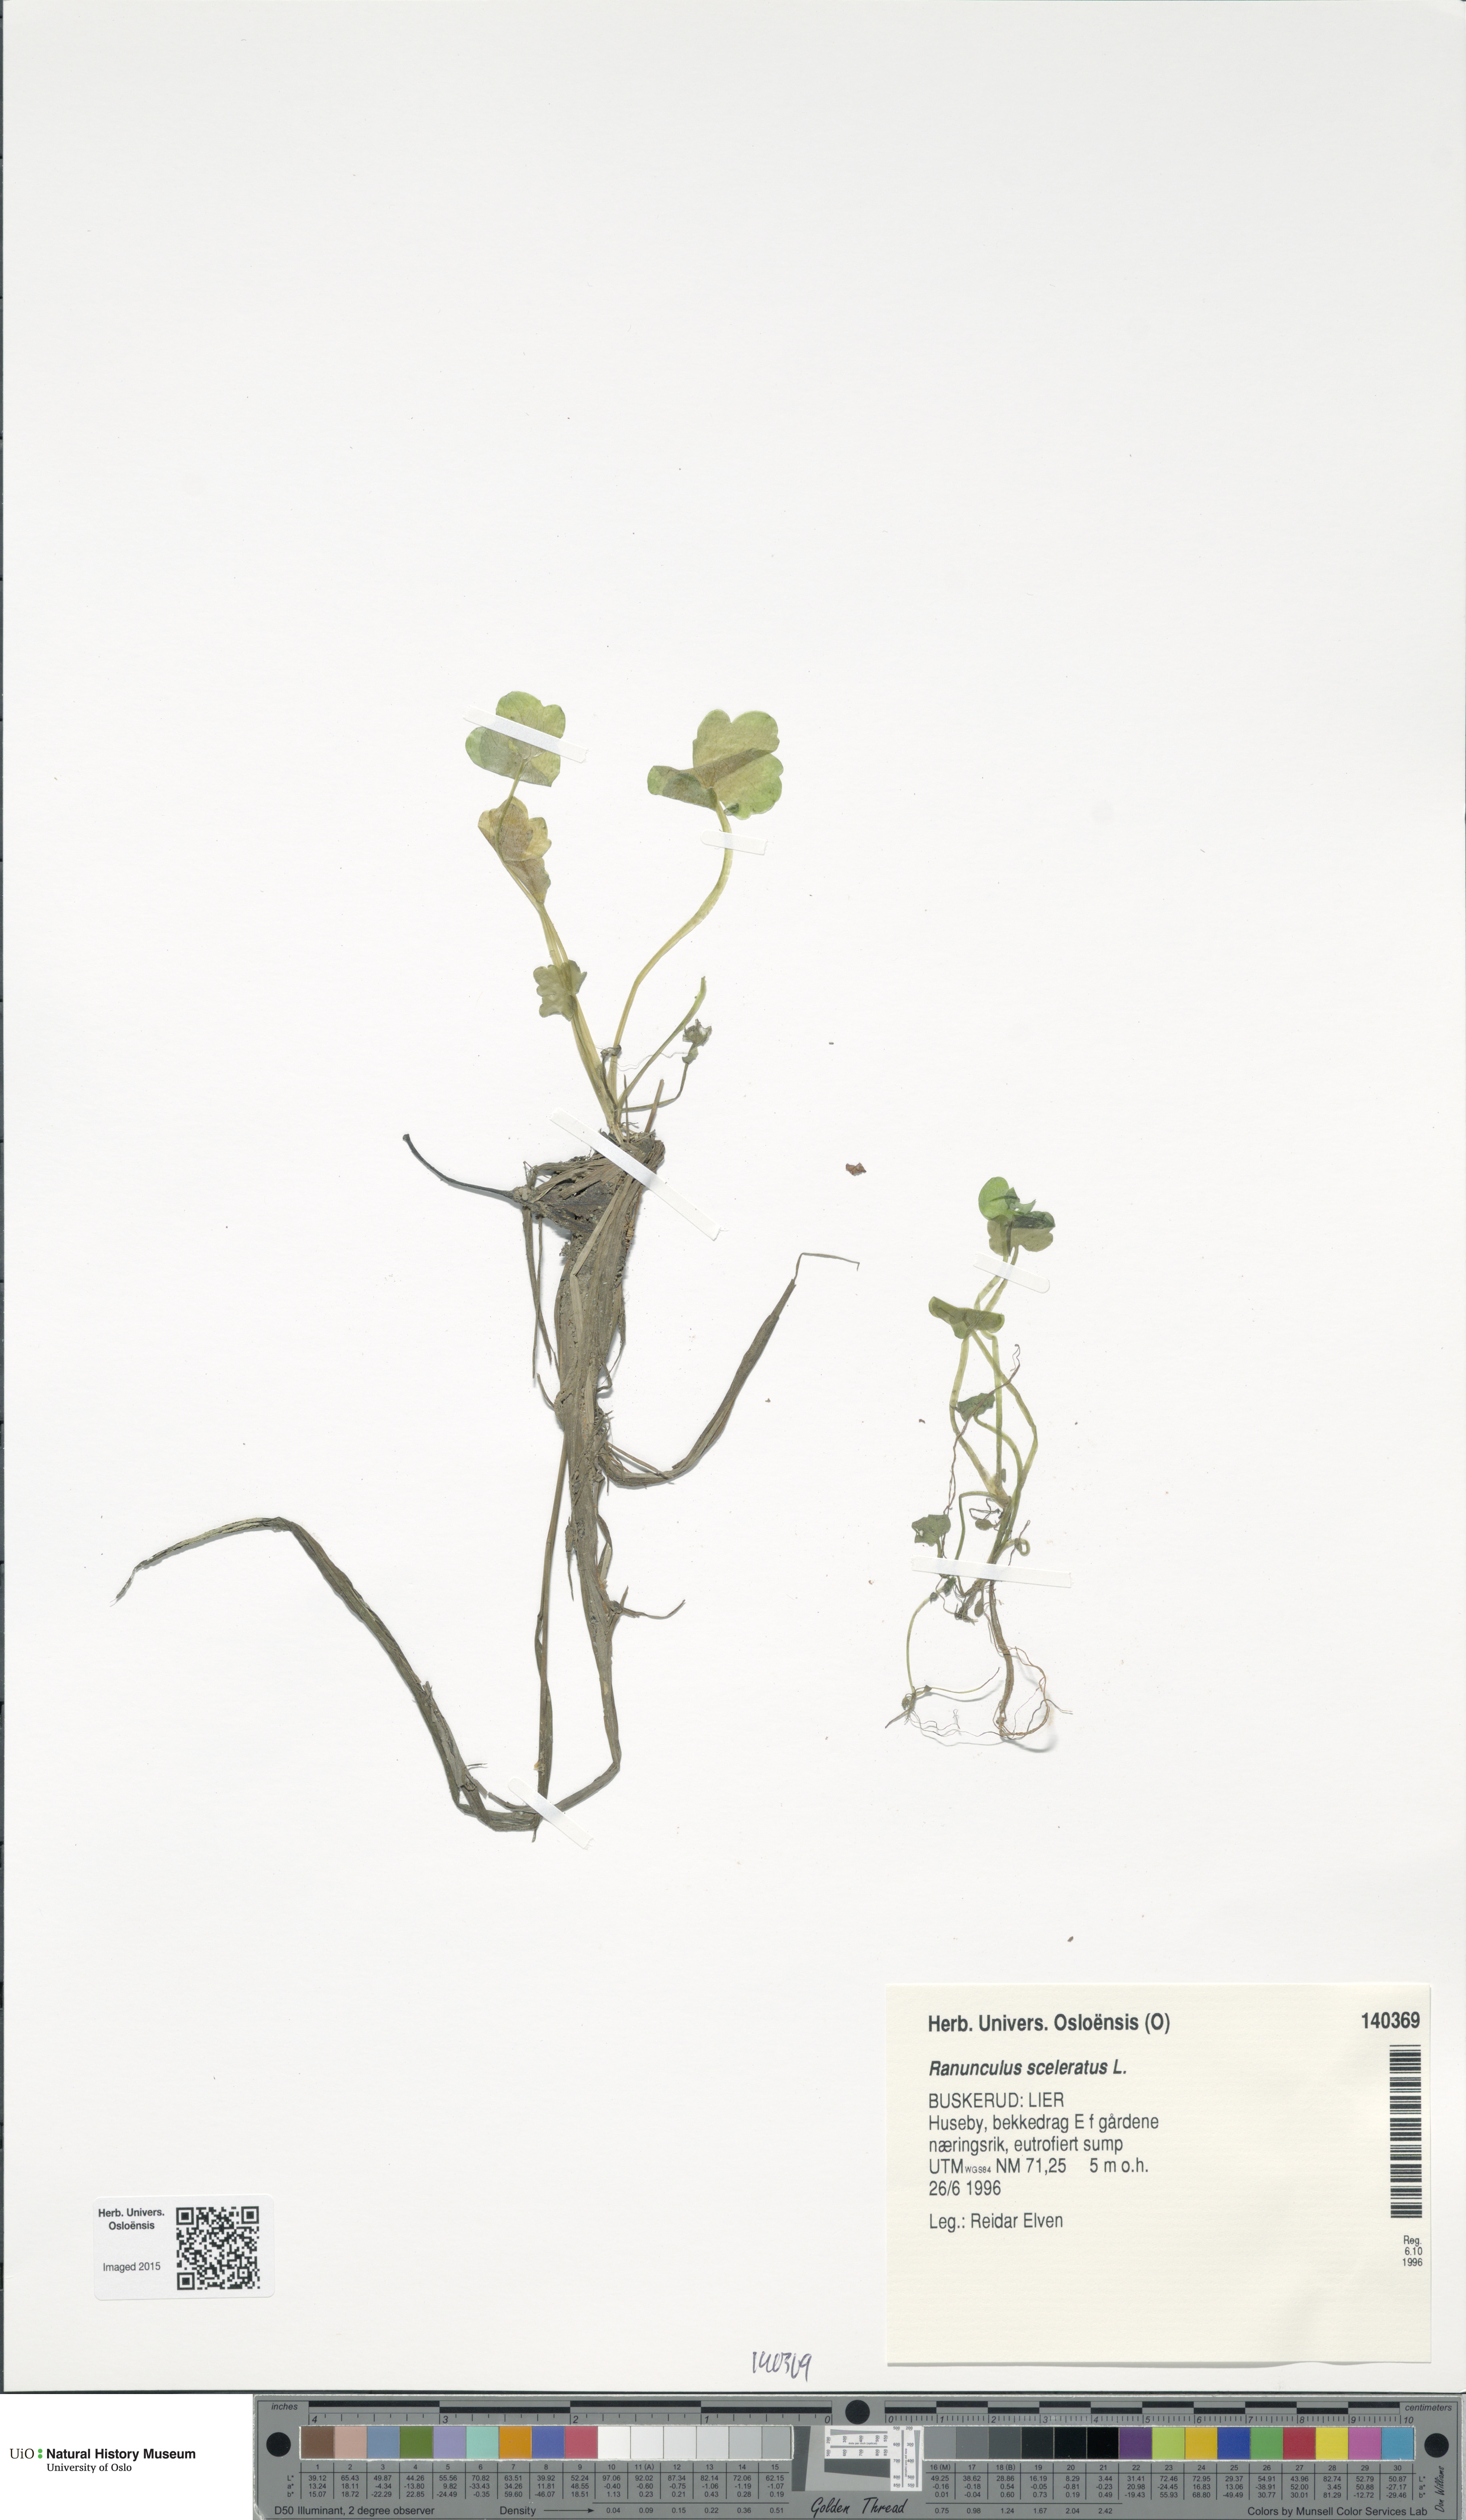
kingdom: Plantae
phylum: Tracheophyta
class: Magnoliopsida
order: Ranunculales
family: Ranunculaceae
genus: Ranunculus
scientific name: Ranunculus sceleratus
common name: Celery-leaved buttercup
